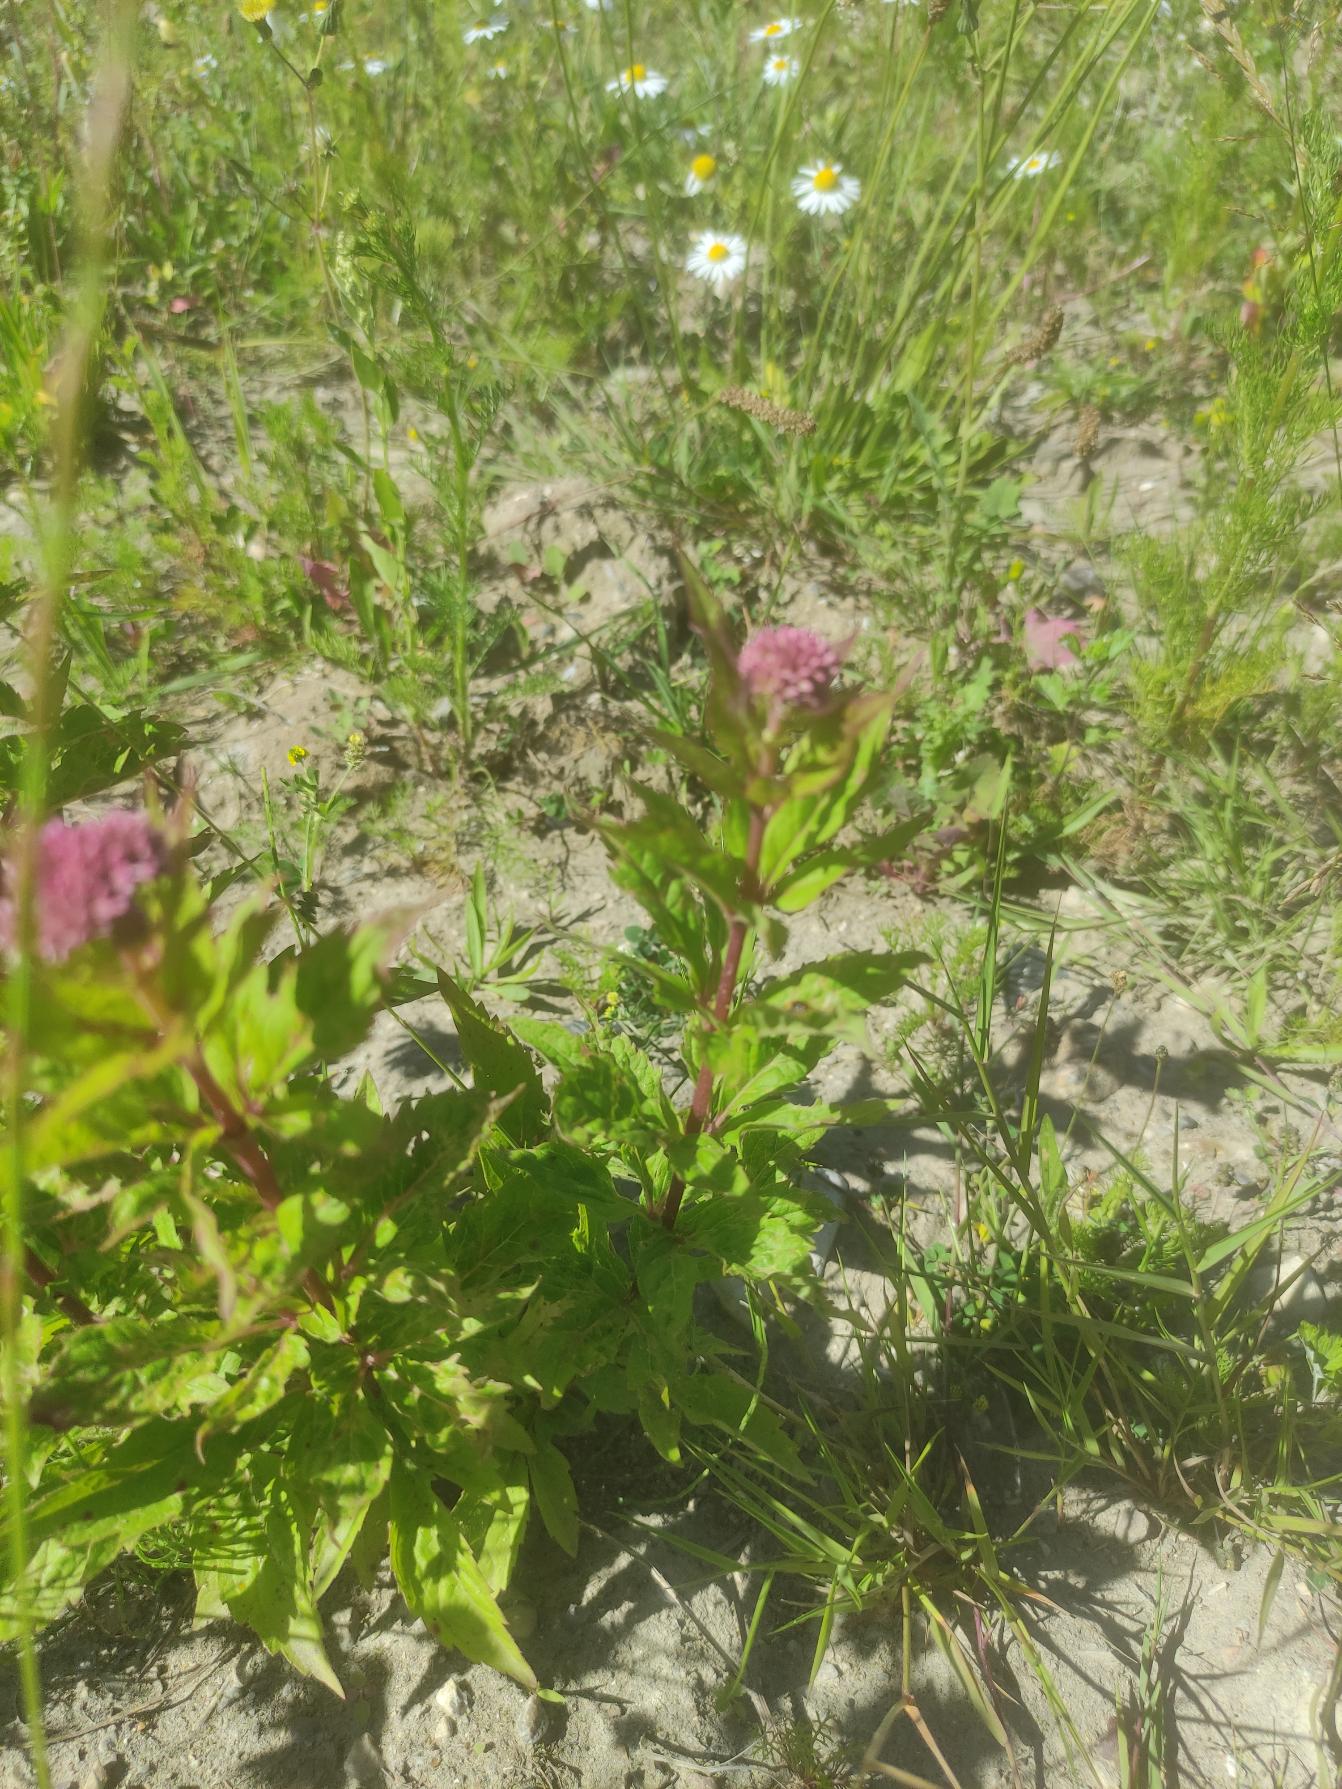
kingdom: Plantae
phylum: Tracheophyta
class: Magnoliopsida
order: Asterales
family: Asteraceae
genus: Eupatorium
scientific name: Eupatorium cannabinum
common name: Hjortetrøst
